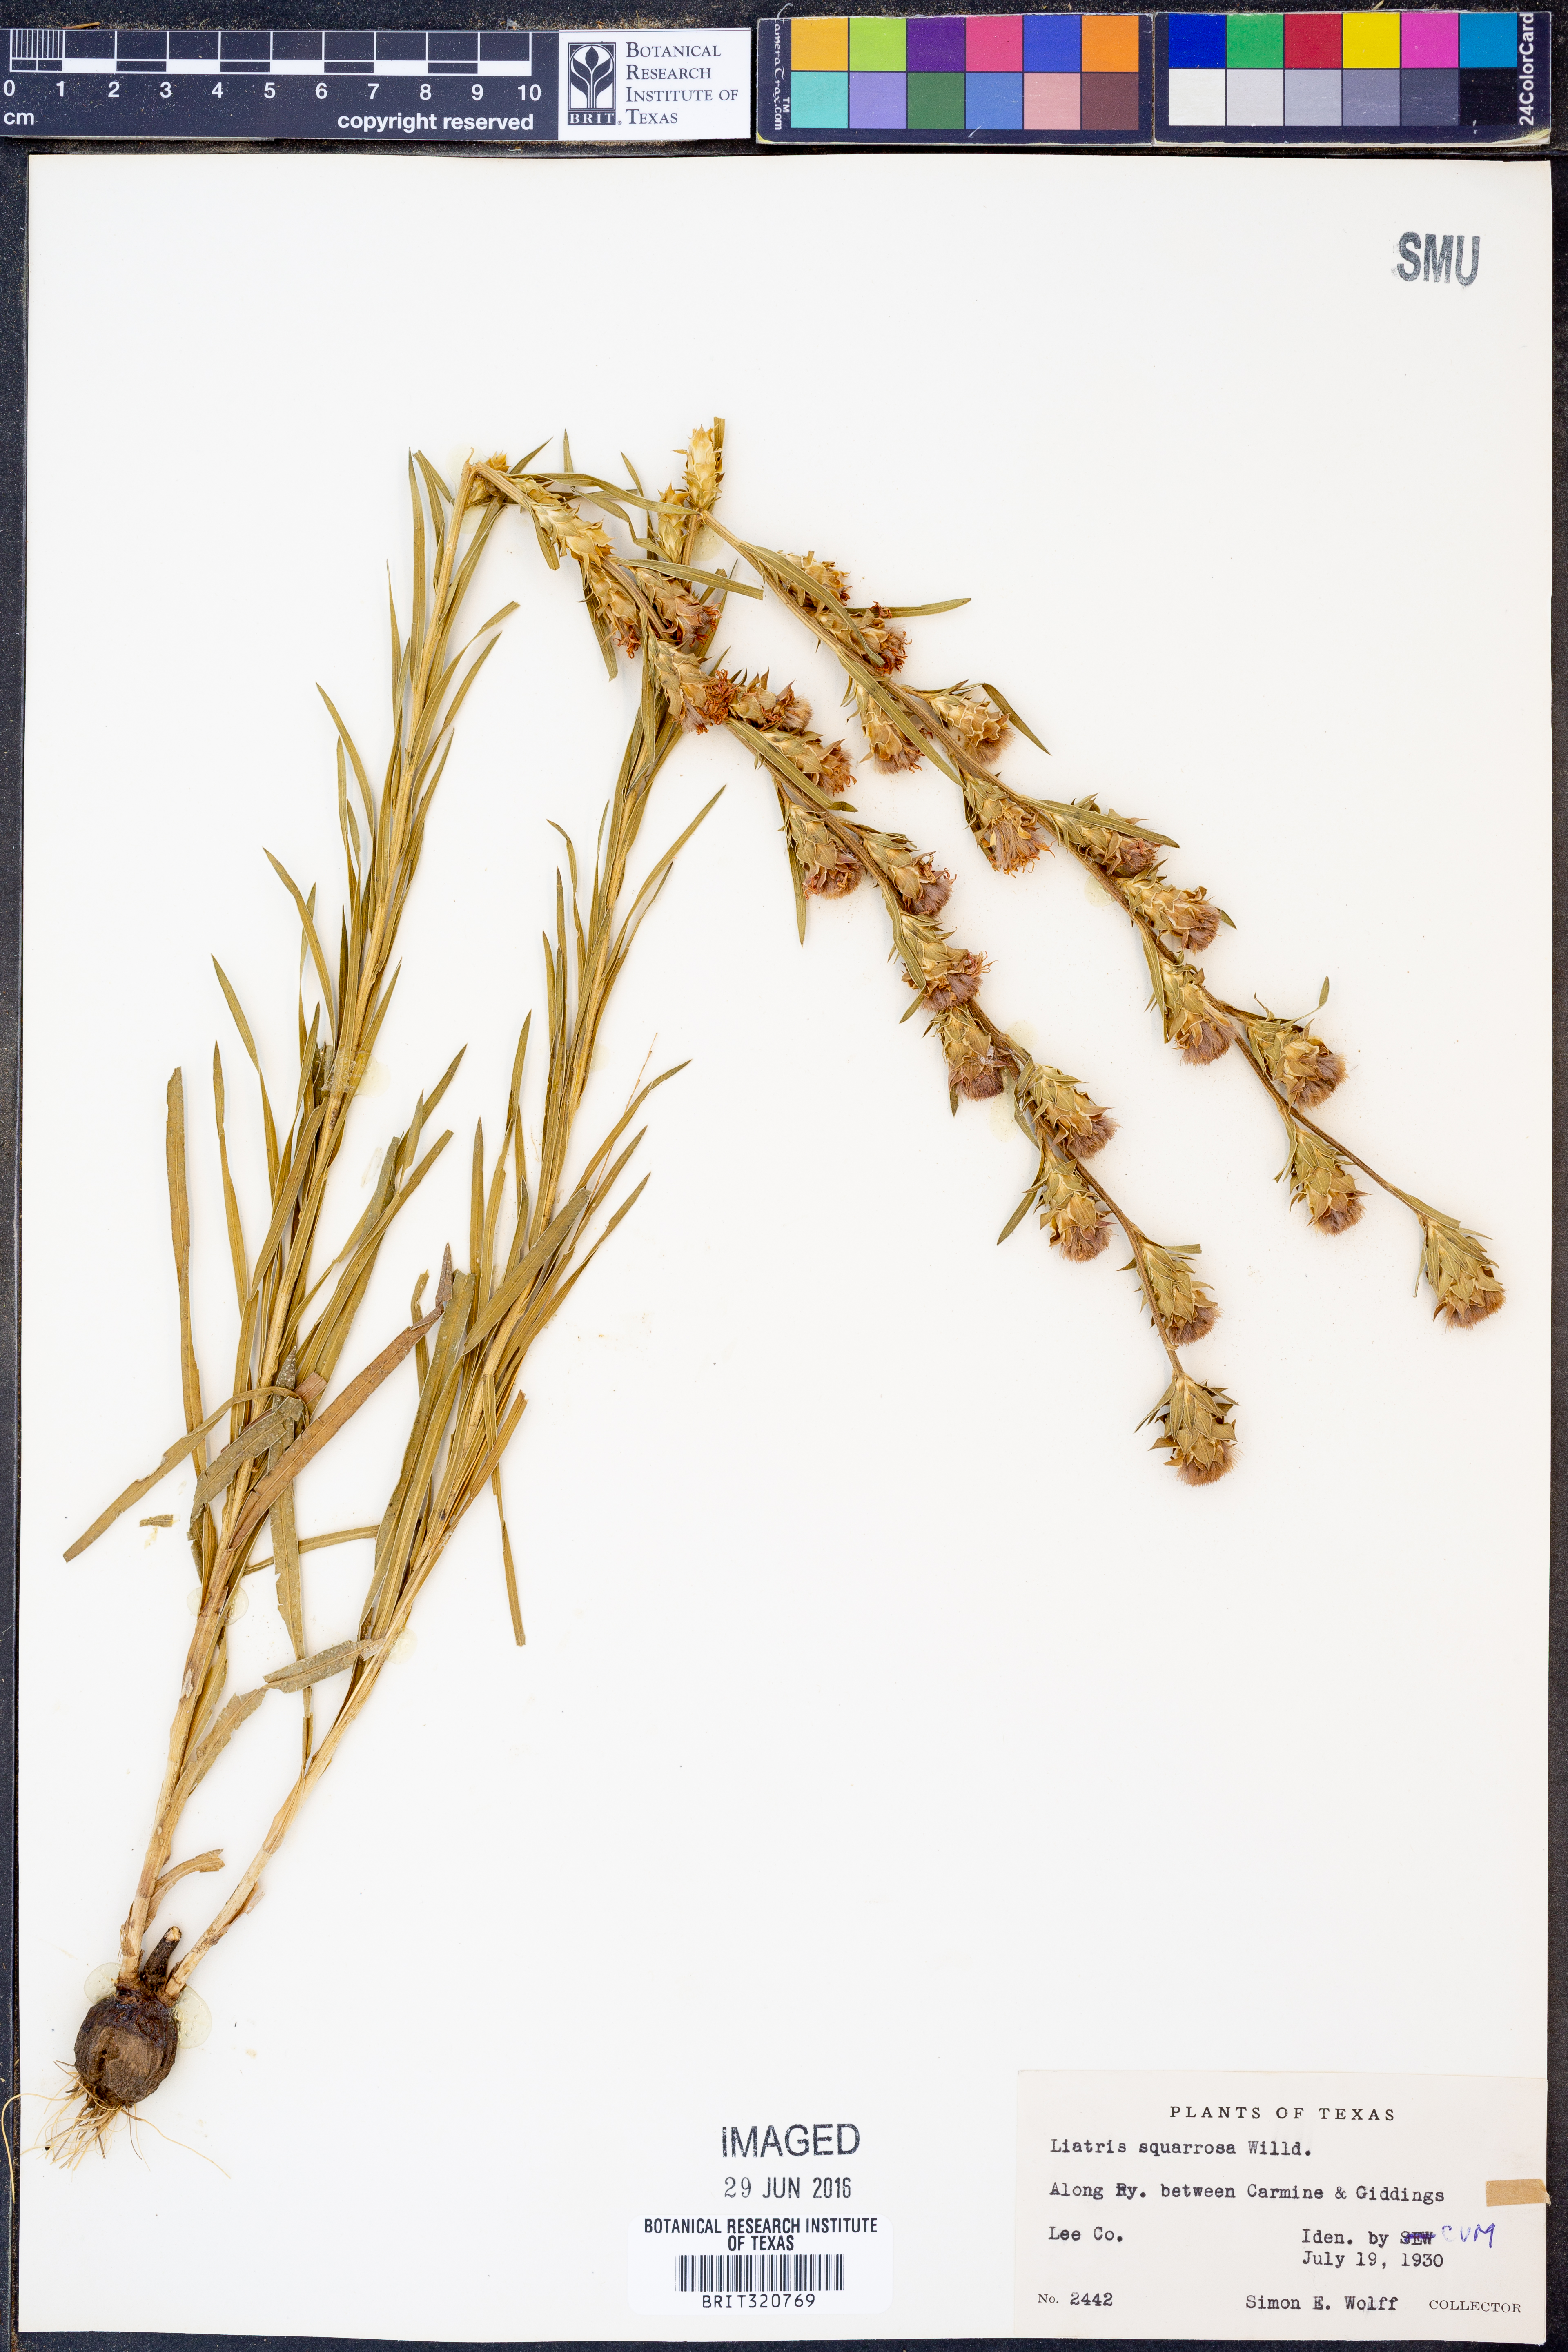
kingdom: Plantae
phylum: Tracheophyta
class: Magnoliopsida
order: Asterales
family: Asteraceae
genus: Liatris
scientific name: Liatris squarrosa
